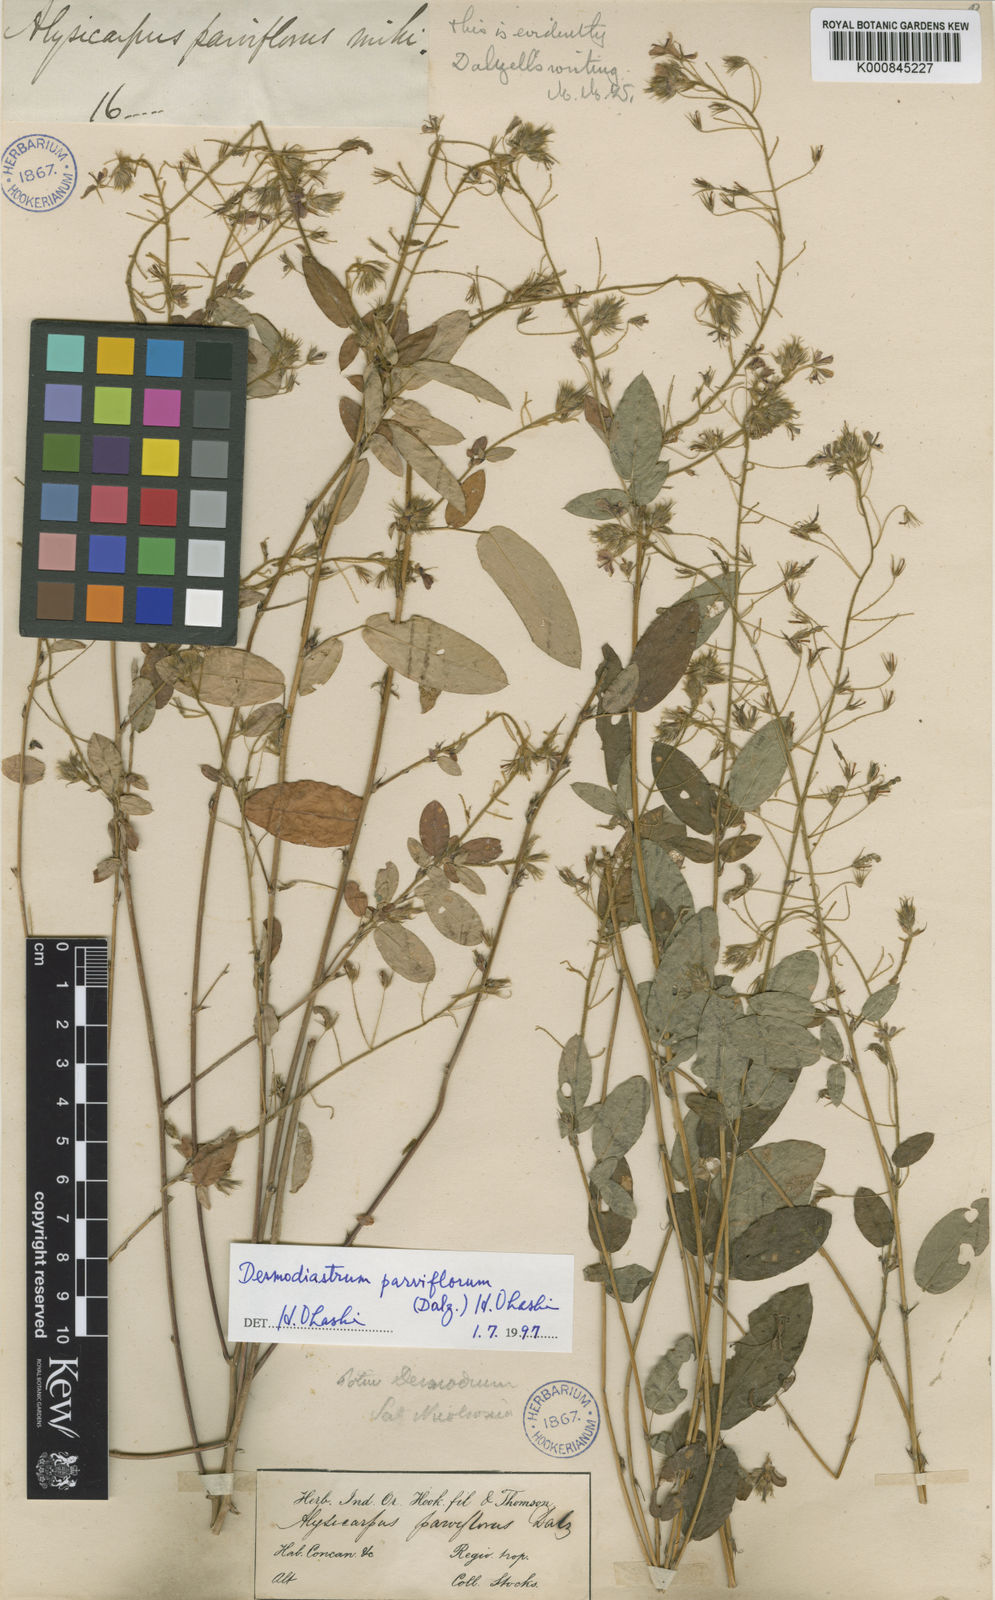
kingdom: Plantae
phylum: Tracheophyta
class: Magnoliopsida
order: Fabales
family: Fabaceae
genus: Alysicarpus
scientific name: Alysicarpus parviflorus
